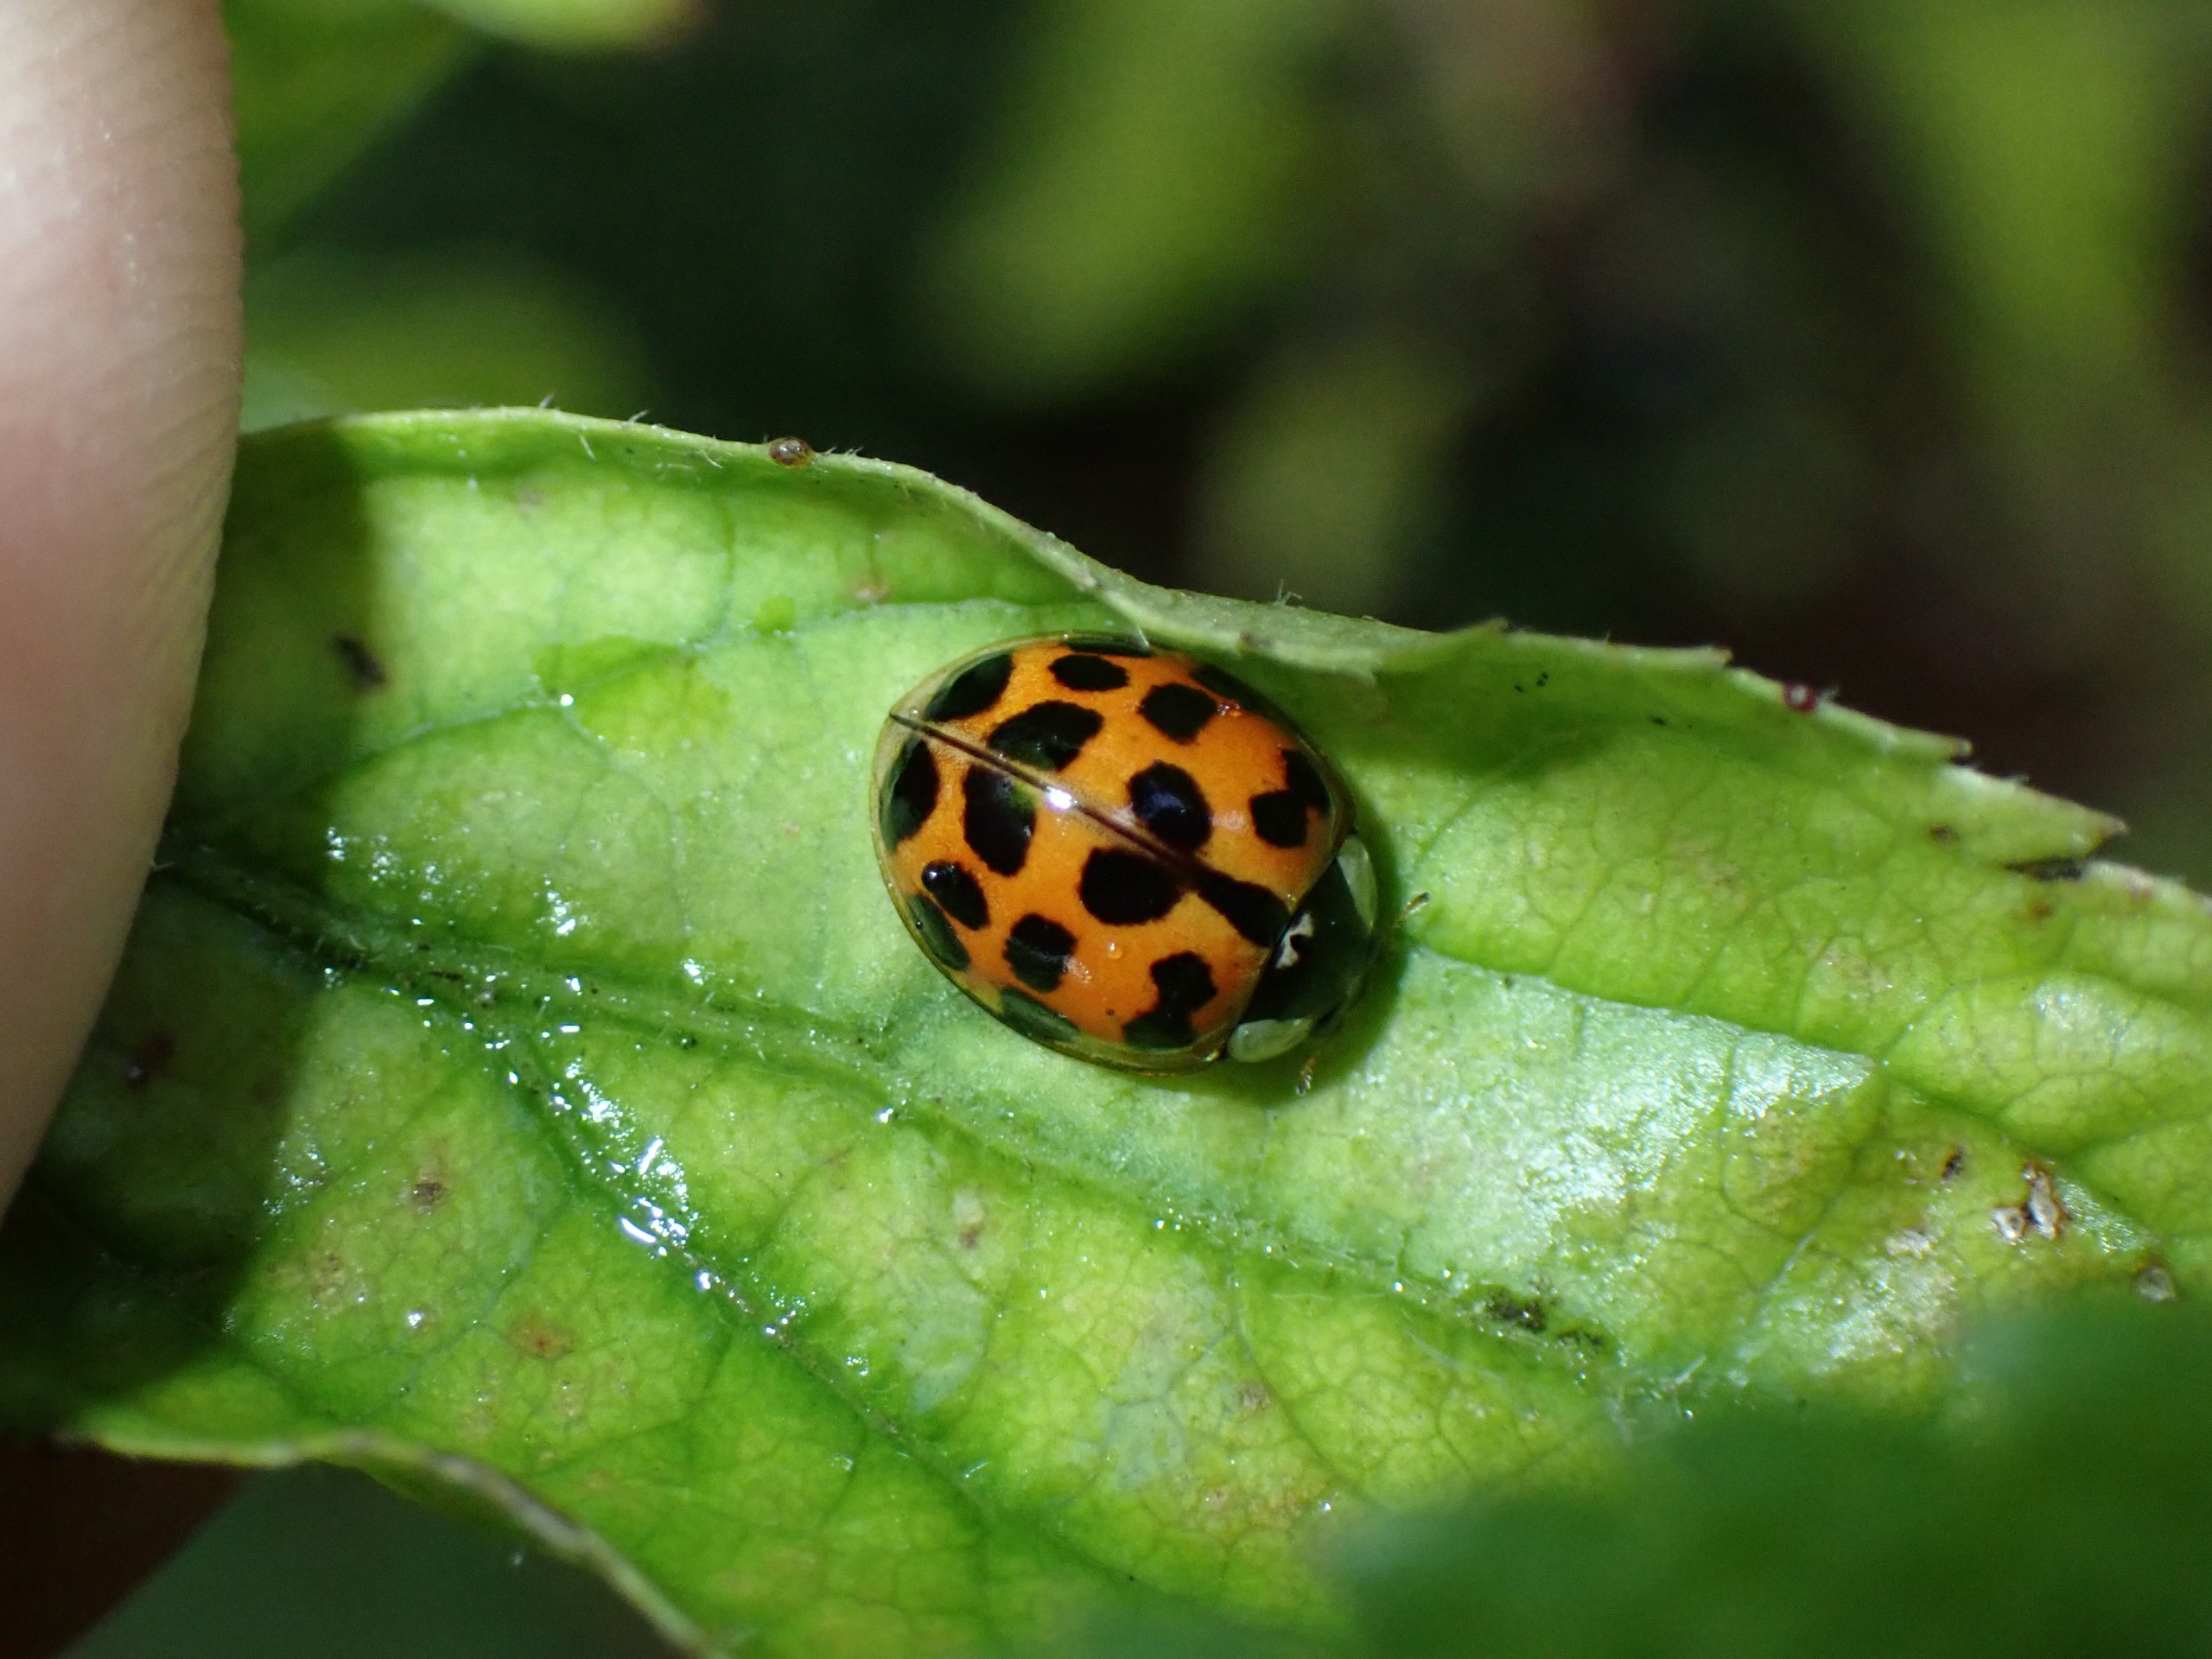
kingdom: Animalia
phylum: Arthropoda
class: Insecta
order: Coleoptera
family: Coccinellidae
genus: Harmonia
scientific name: Harmonia axyridis
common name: Harlekinmariehøne
